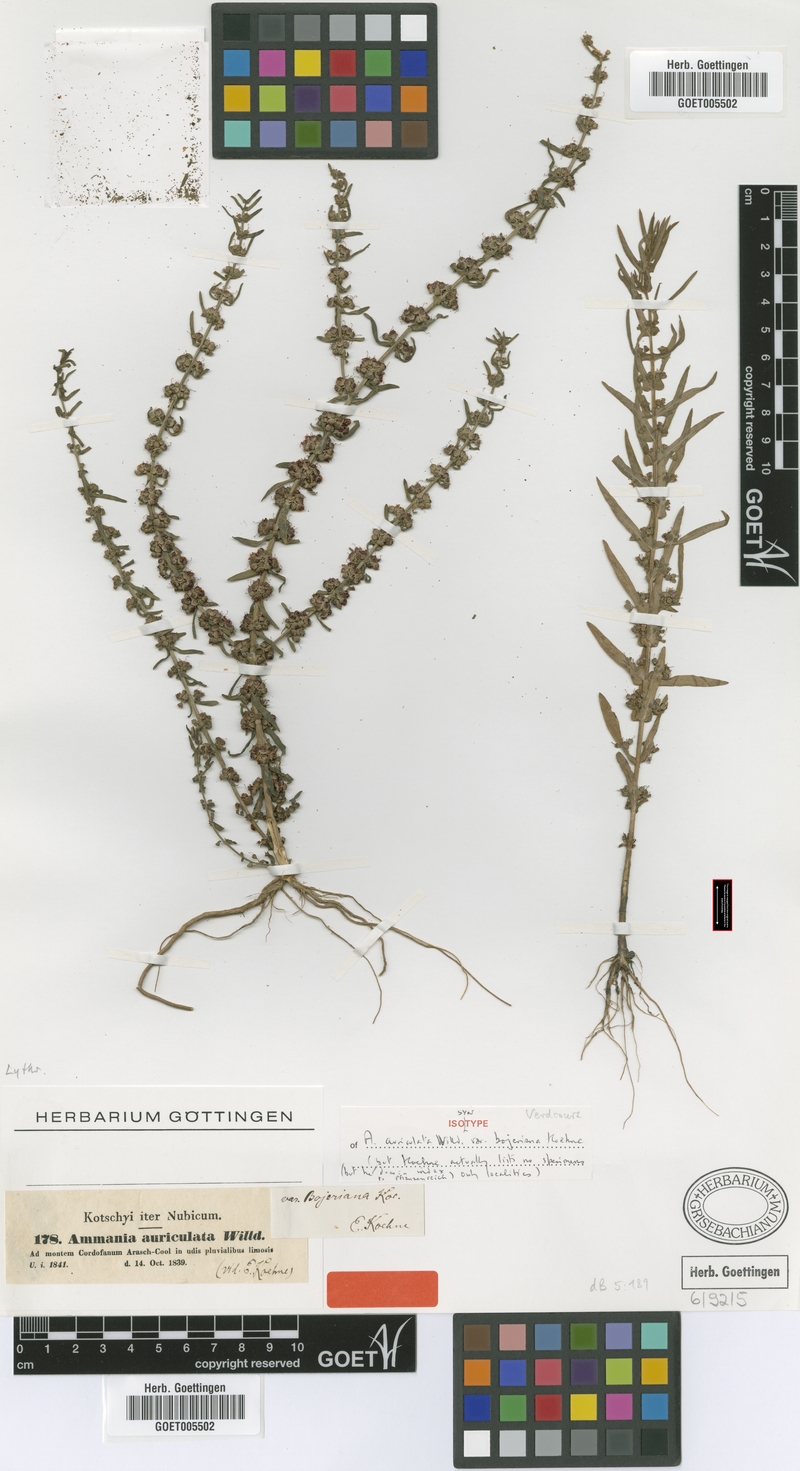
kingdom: Plantae
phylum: Tracheophyta
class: Magnoliopsida
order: Myrtales
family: Lythraceae
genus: Ammannia
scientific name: Ammannia auriculata
